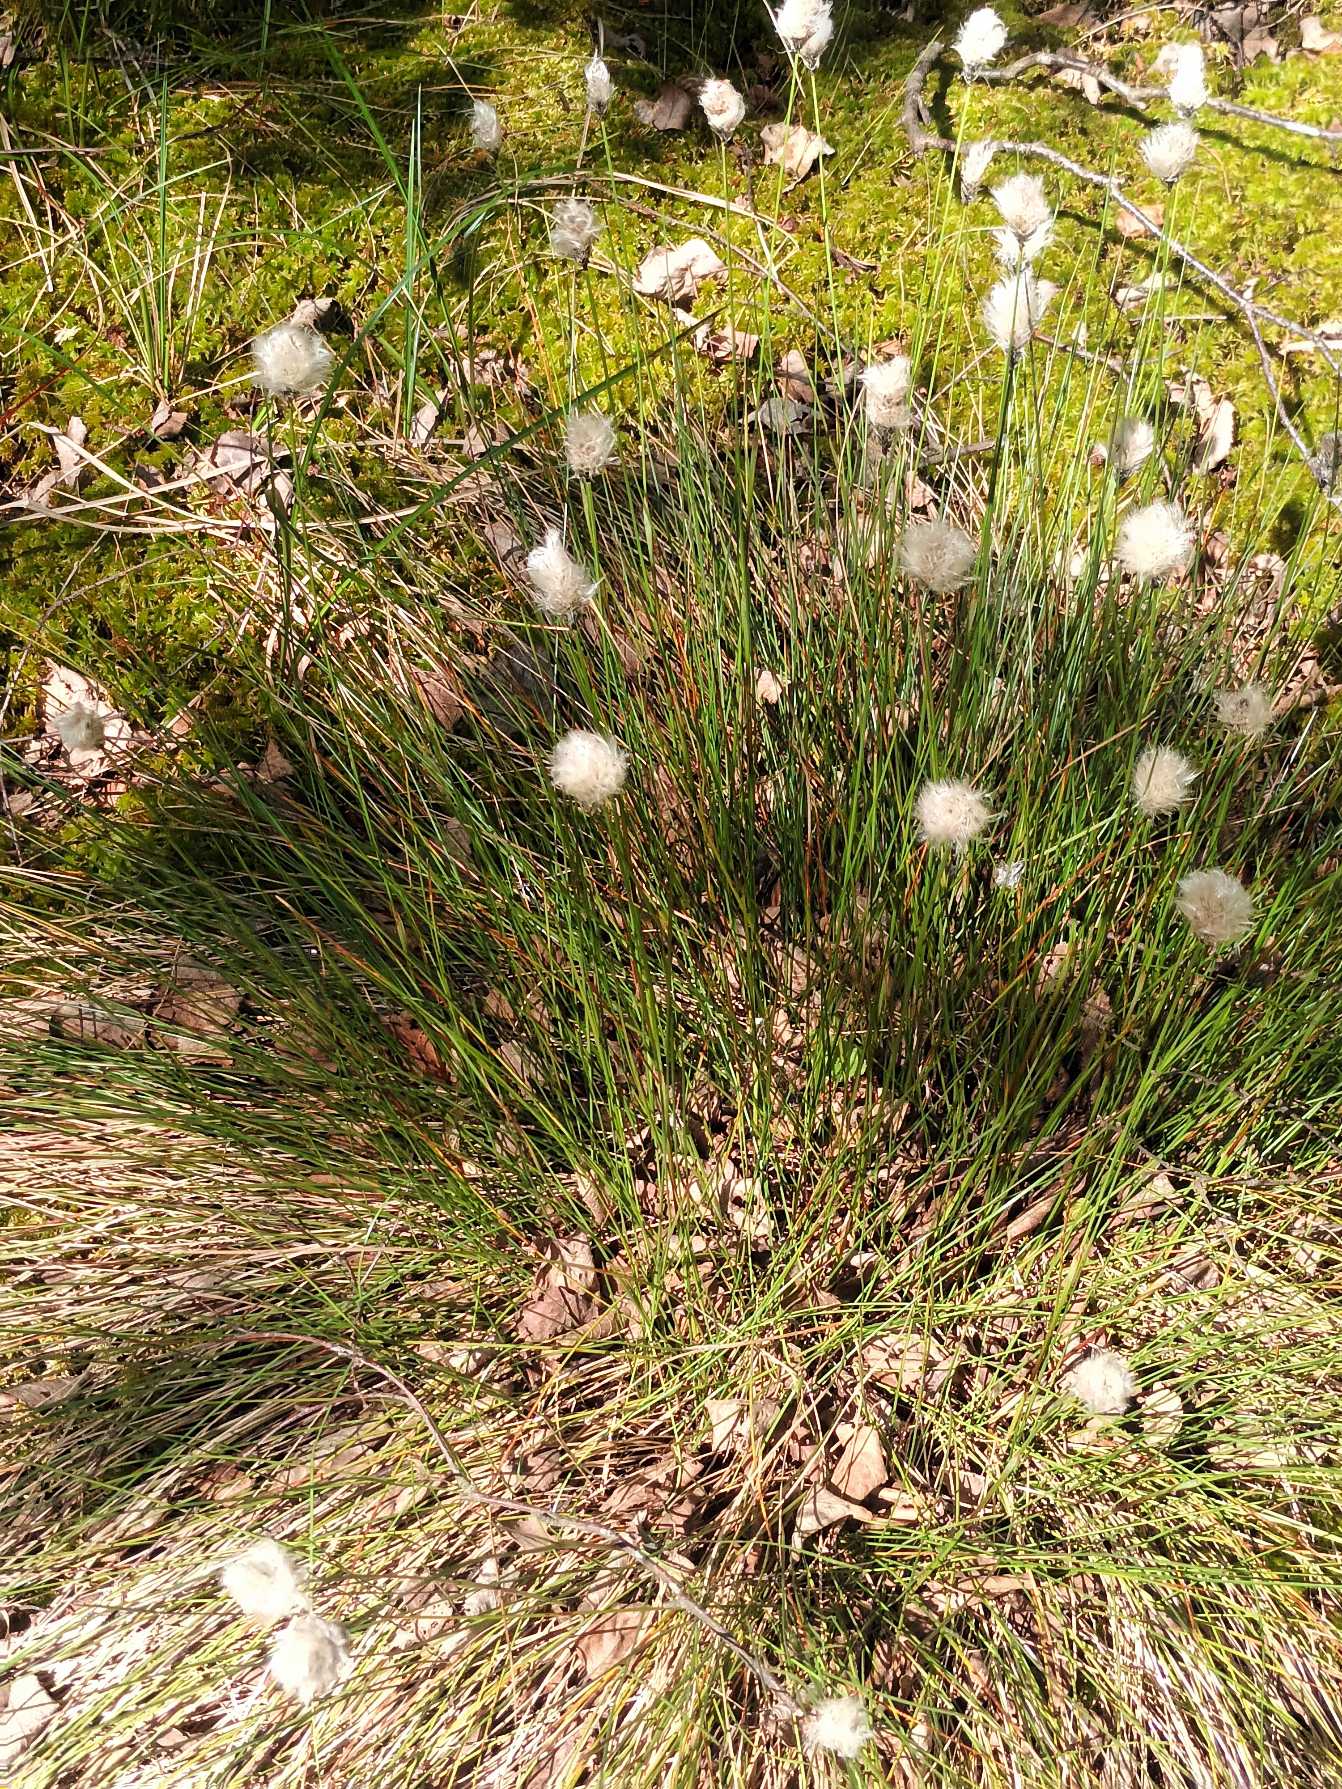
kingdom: Plantae
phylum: Tracheophyta
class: Liliopsida
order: Poales
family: Cyperaceae
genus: Eriophorum
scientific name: Eriophorum vaginatum
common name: Tue-kæruld
